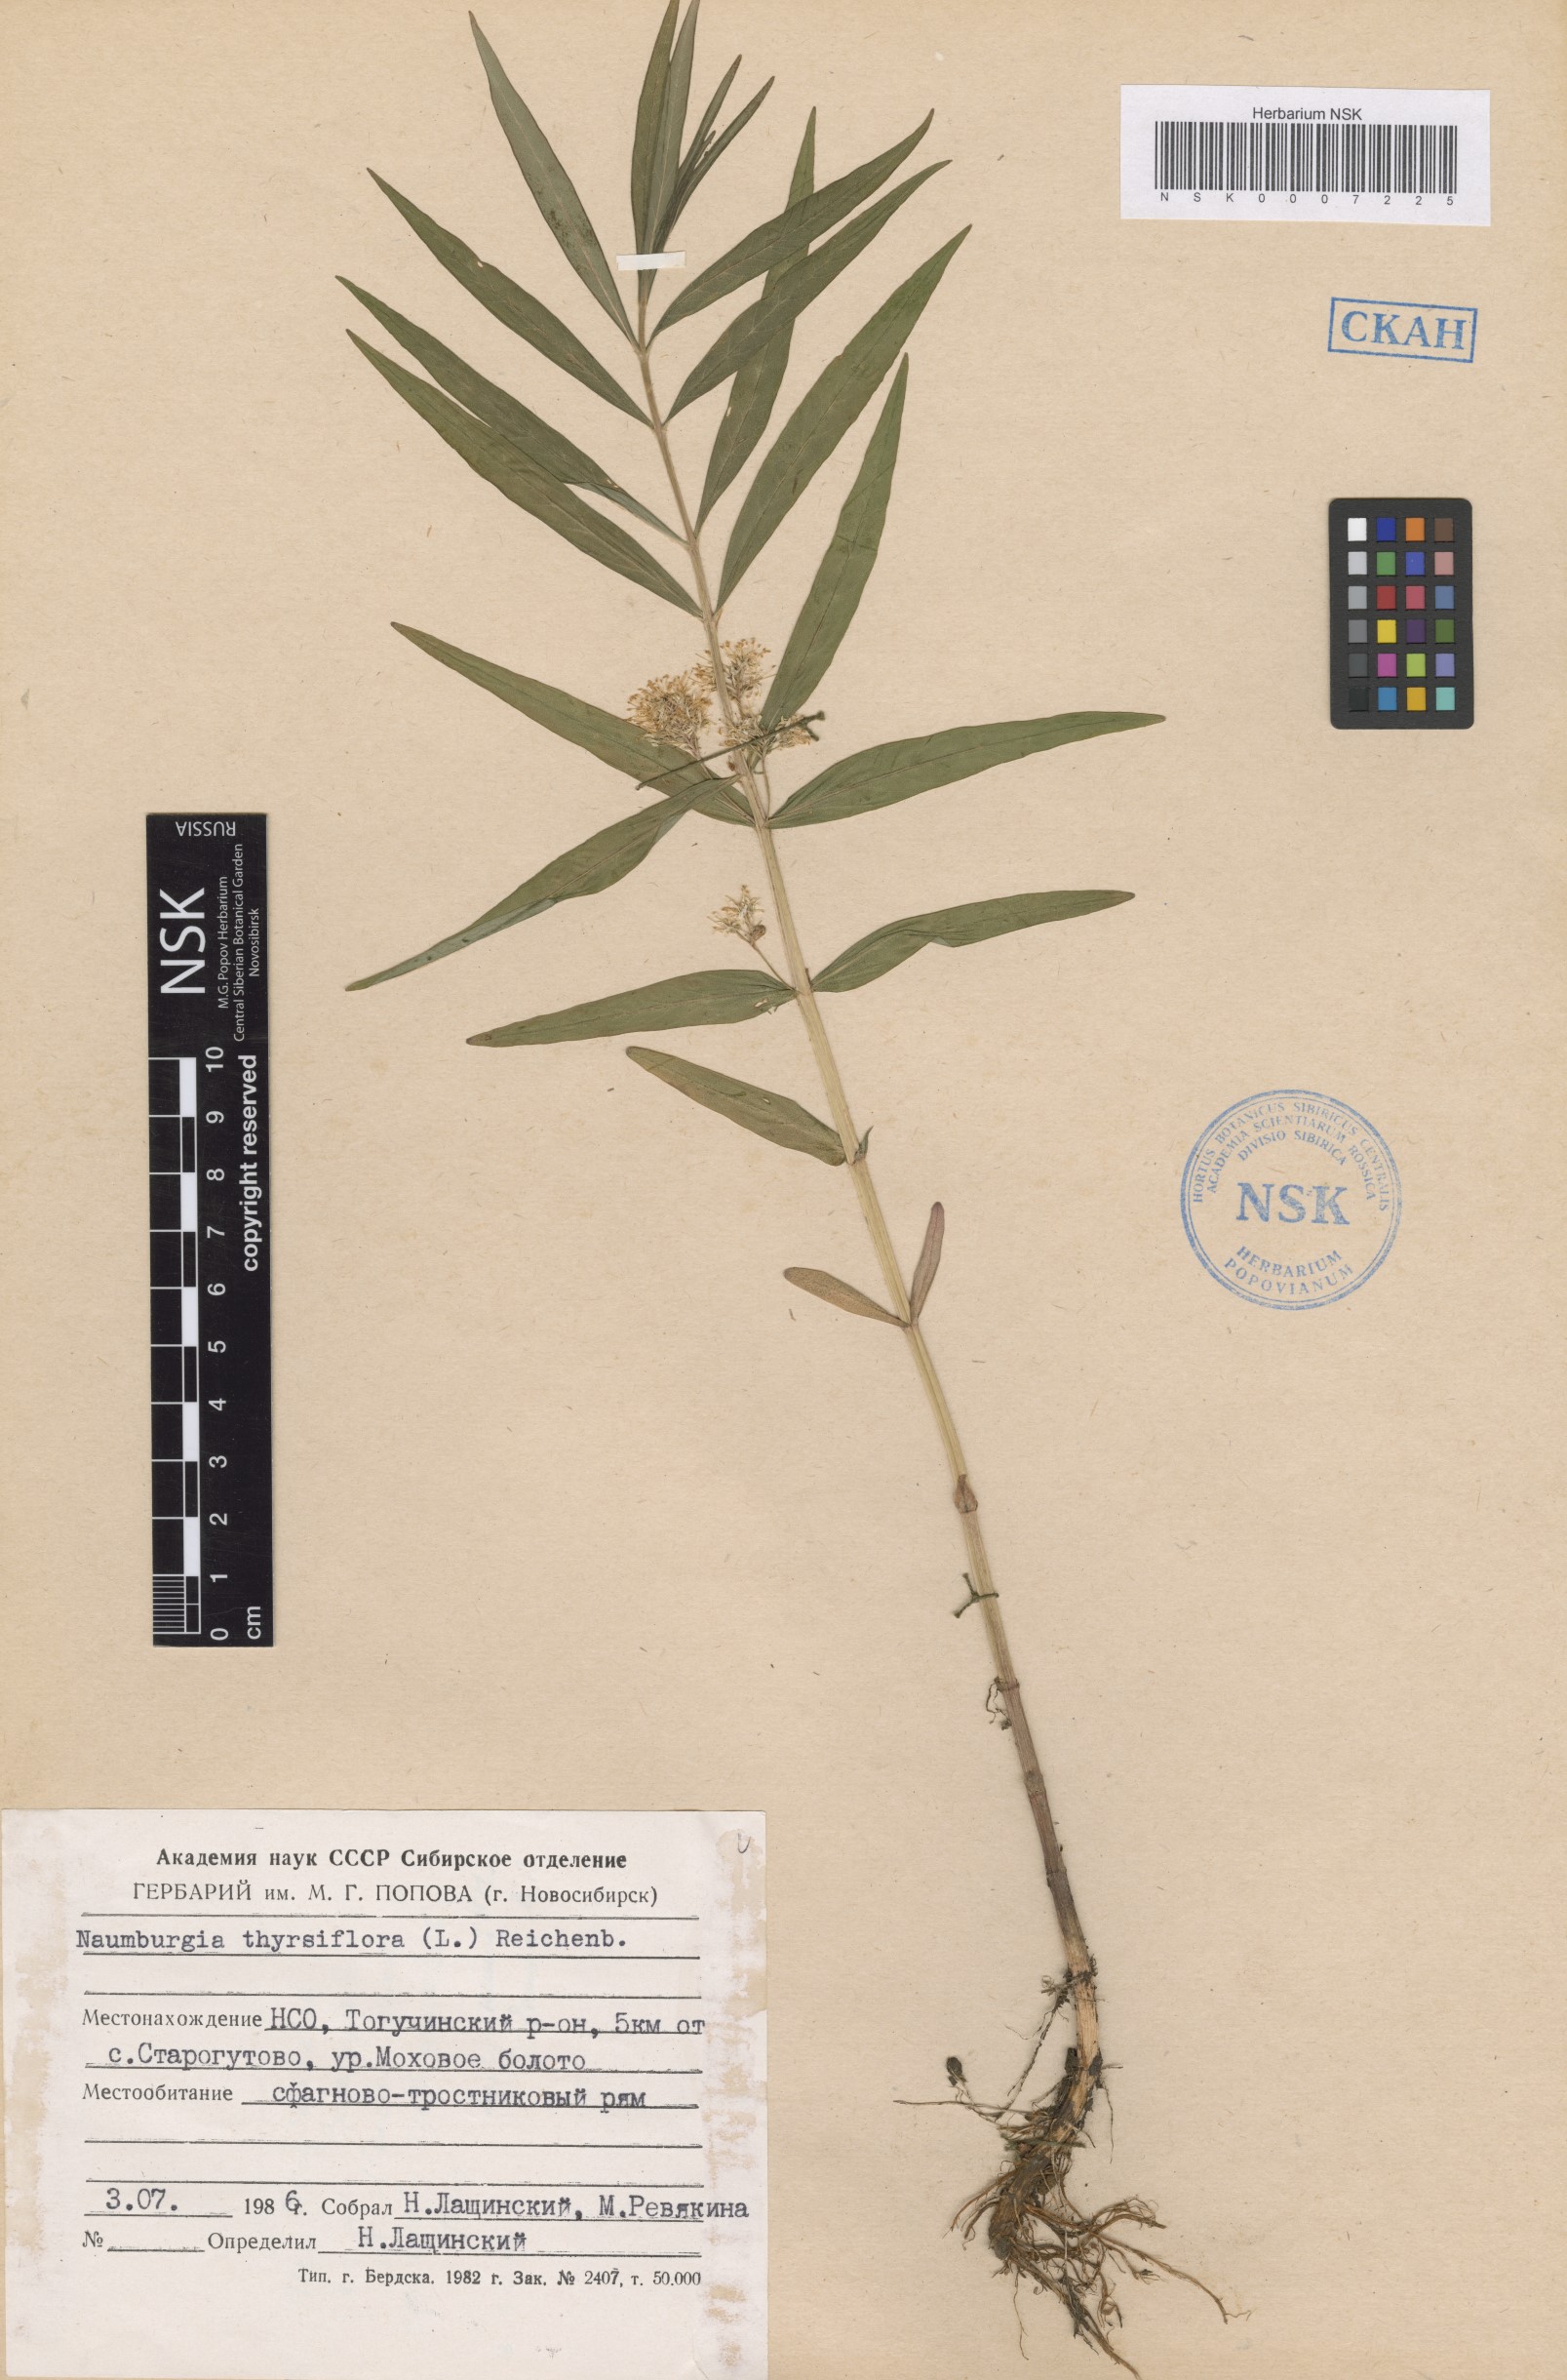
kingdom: Plantae
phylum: Tracheophyta
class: Magnoliopsida
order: Ericales
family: Primulaceae
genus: Lysimachia
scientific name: Lysimachia thyrsiflora
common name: Tufted loosestrife
